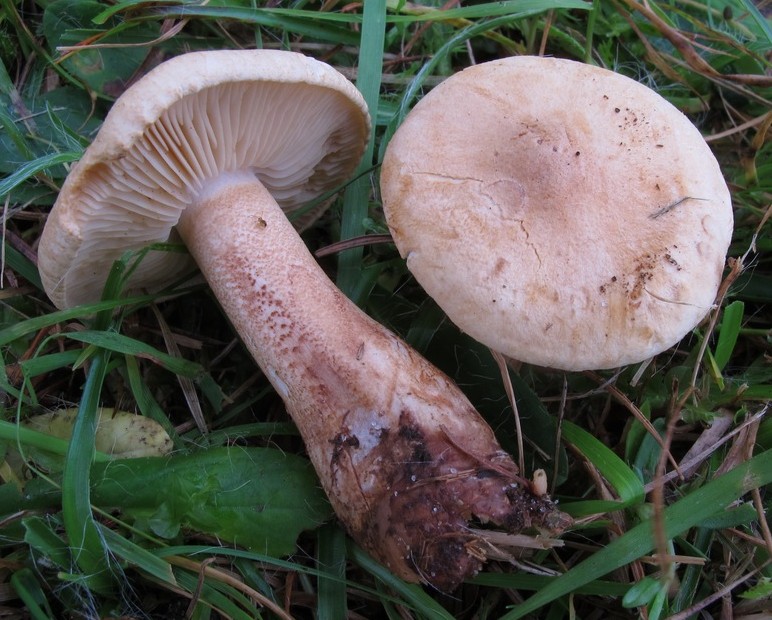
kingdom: Fungi
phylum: Basidiomycota
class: Agaricomycetes
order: Agaricales
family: Tricholomataceae
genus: Tricholoma
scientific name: Tricholoma psammopus
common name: grynstokket ridderhat
